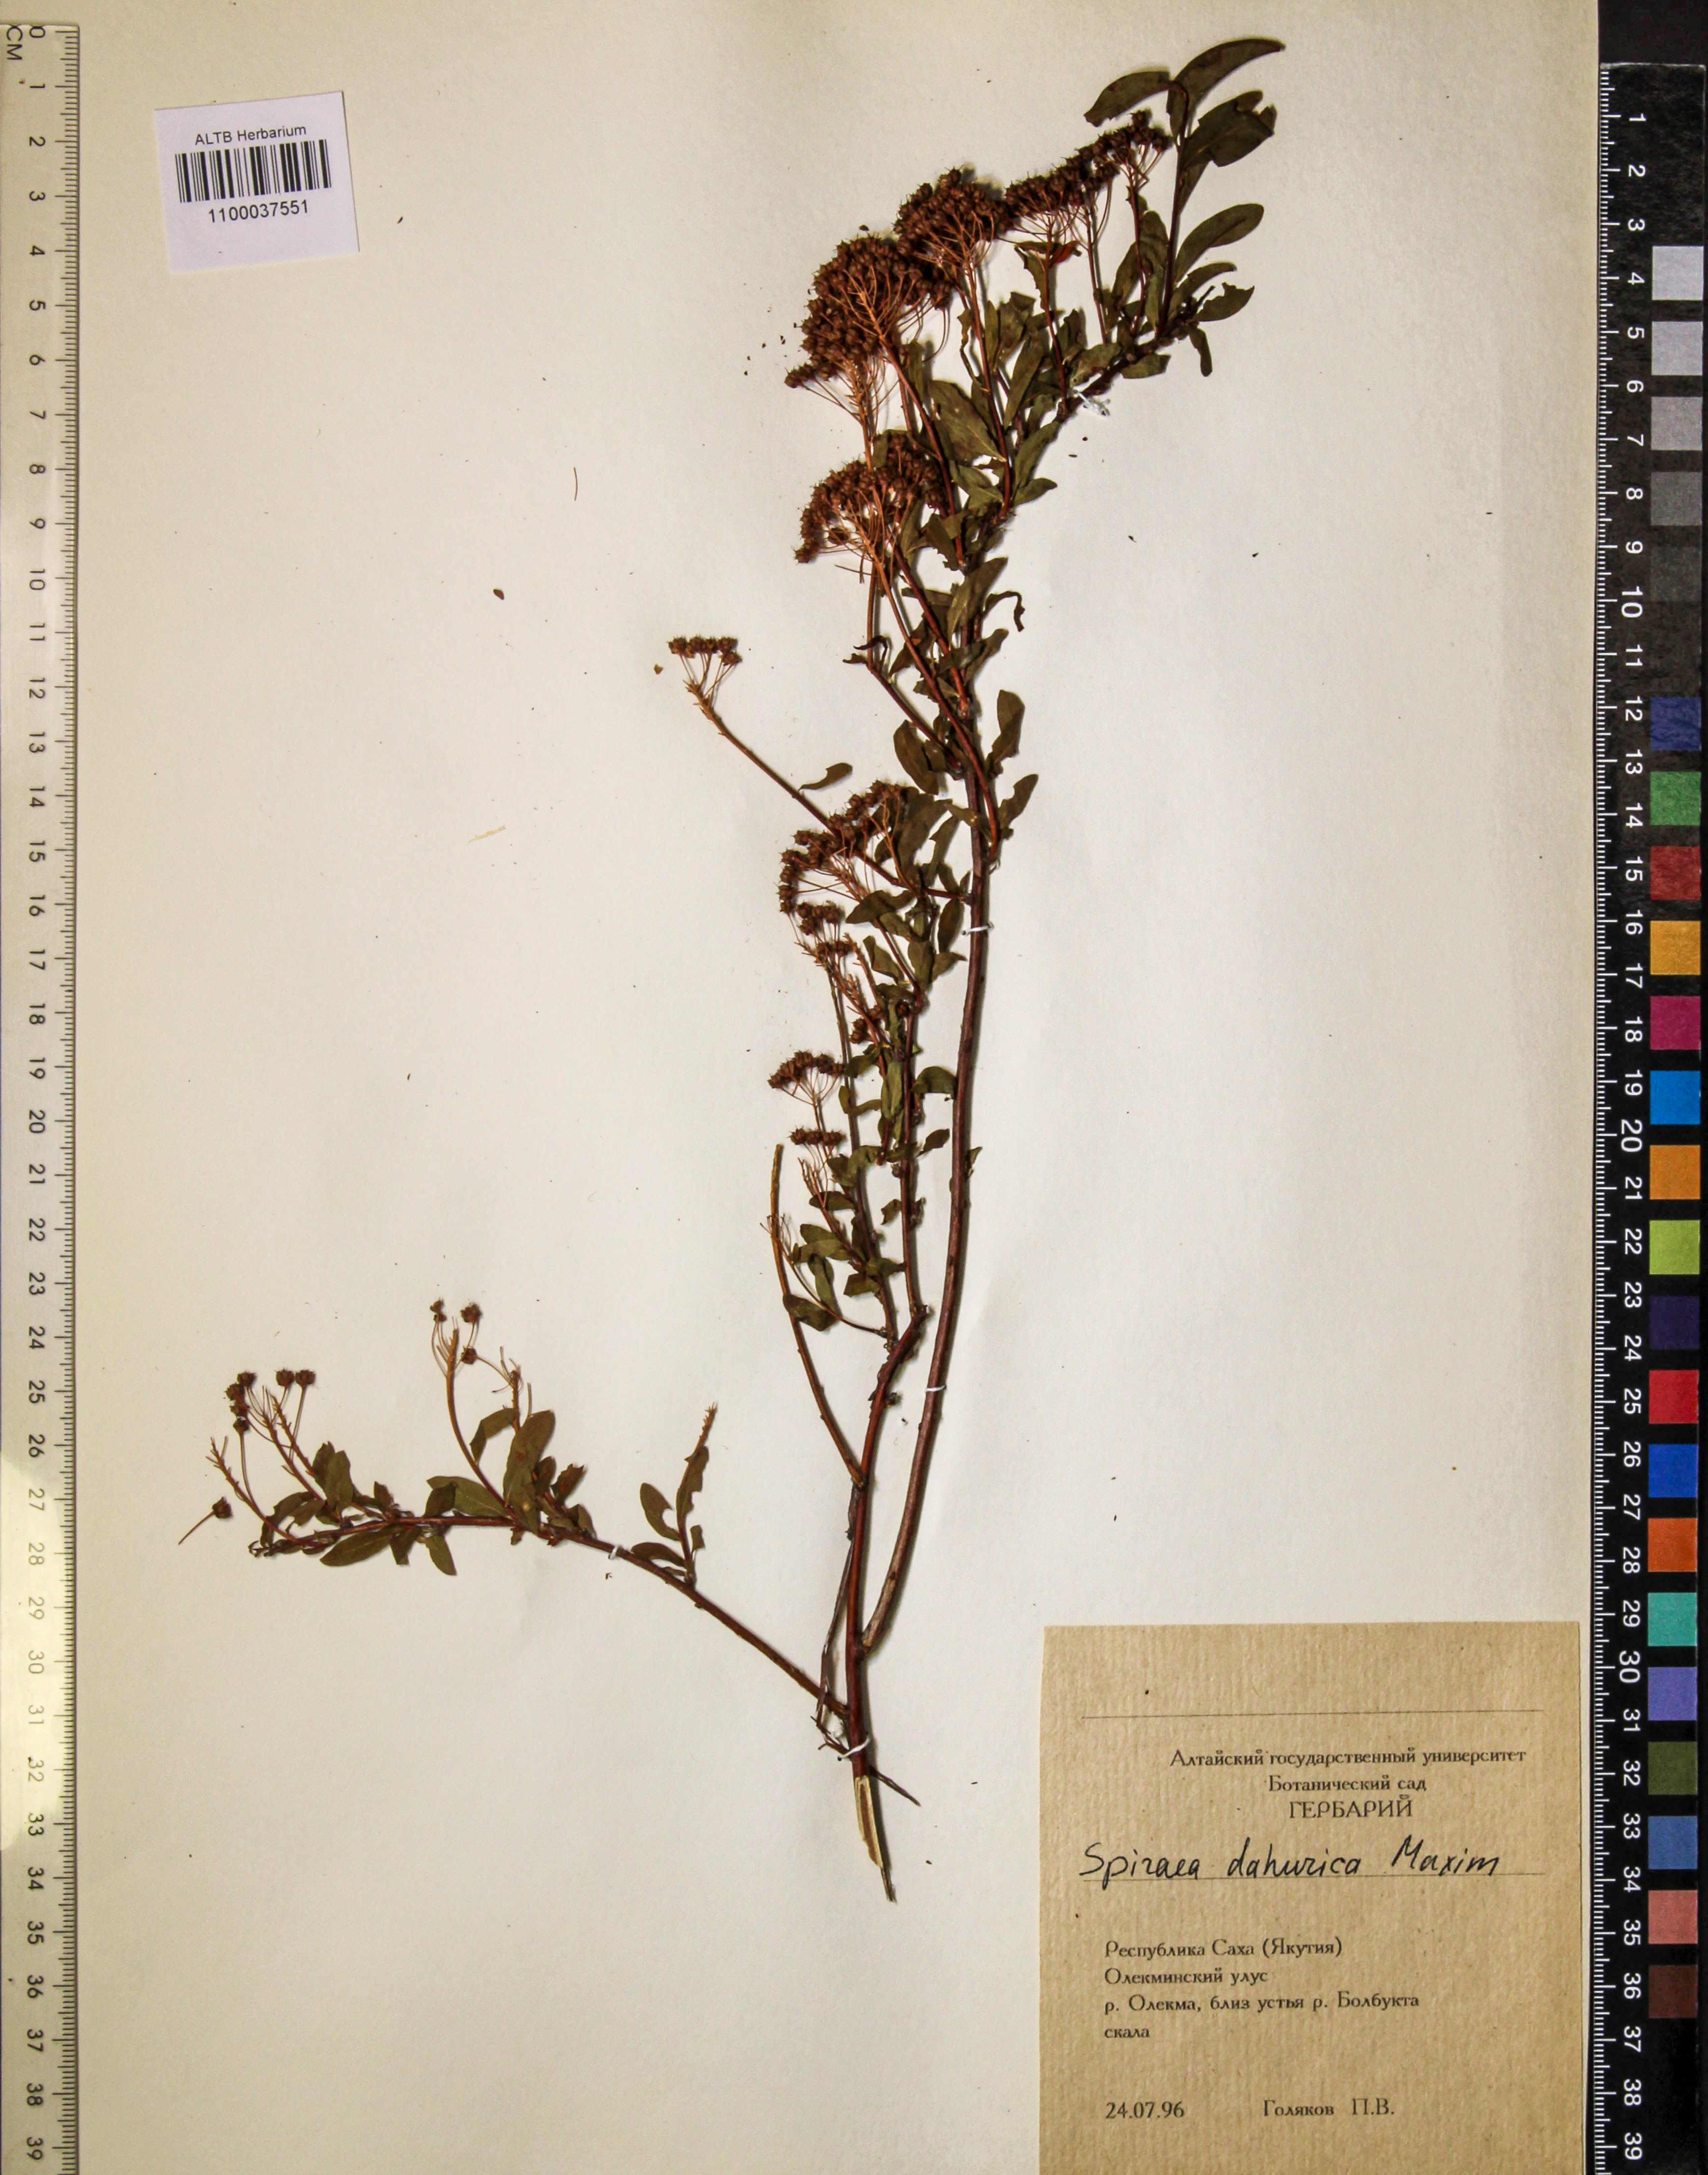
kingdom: Plantae
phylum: Tracheophyta
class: Magnoliopsida
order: Rosales
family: Rosaceae
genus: Spiraea
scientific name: Spiraea dahurica
